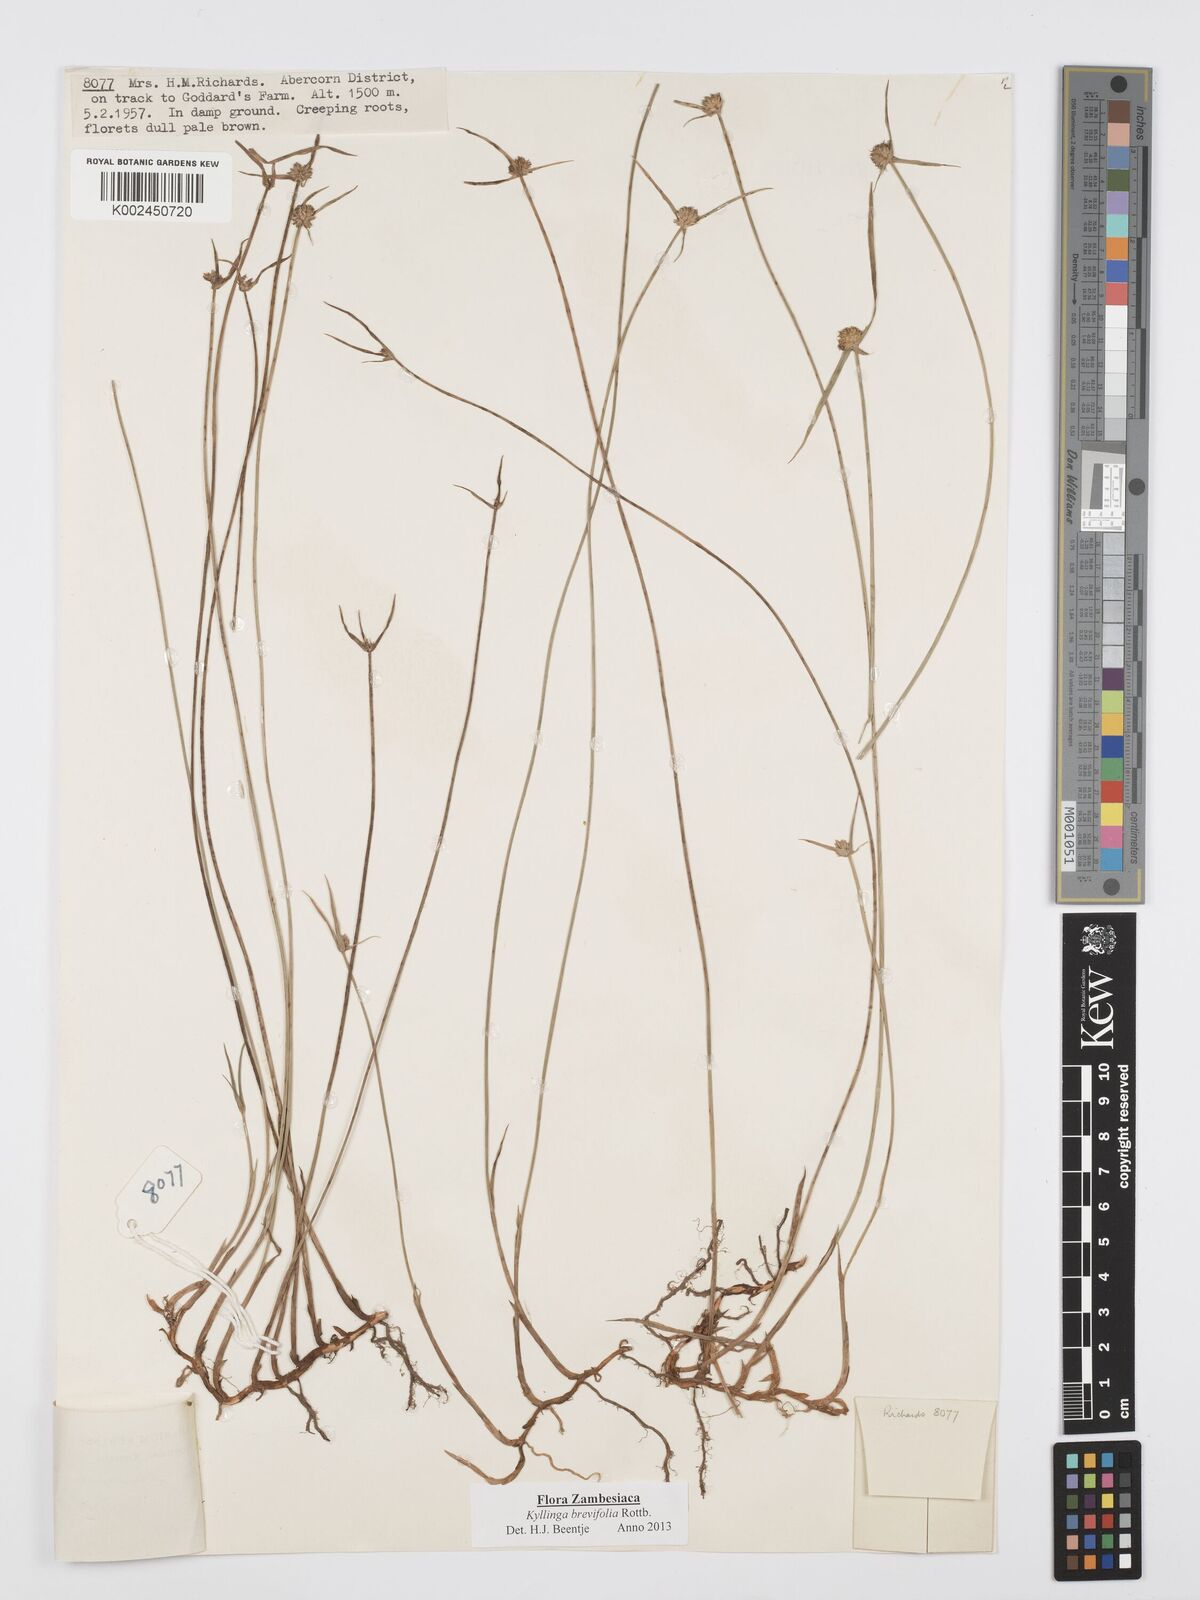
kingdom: Plantae
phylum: Tracheophyta
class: Liliopsida
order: Poales
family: Cyperaceae
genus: Cyperus
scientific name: Cyperus brevifolius
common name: Globe kyllinga
